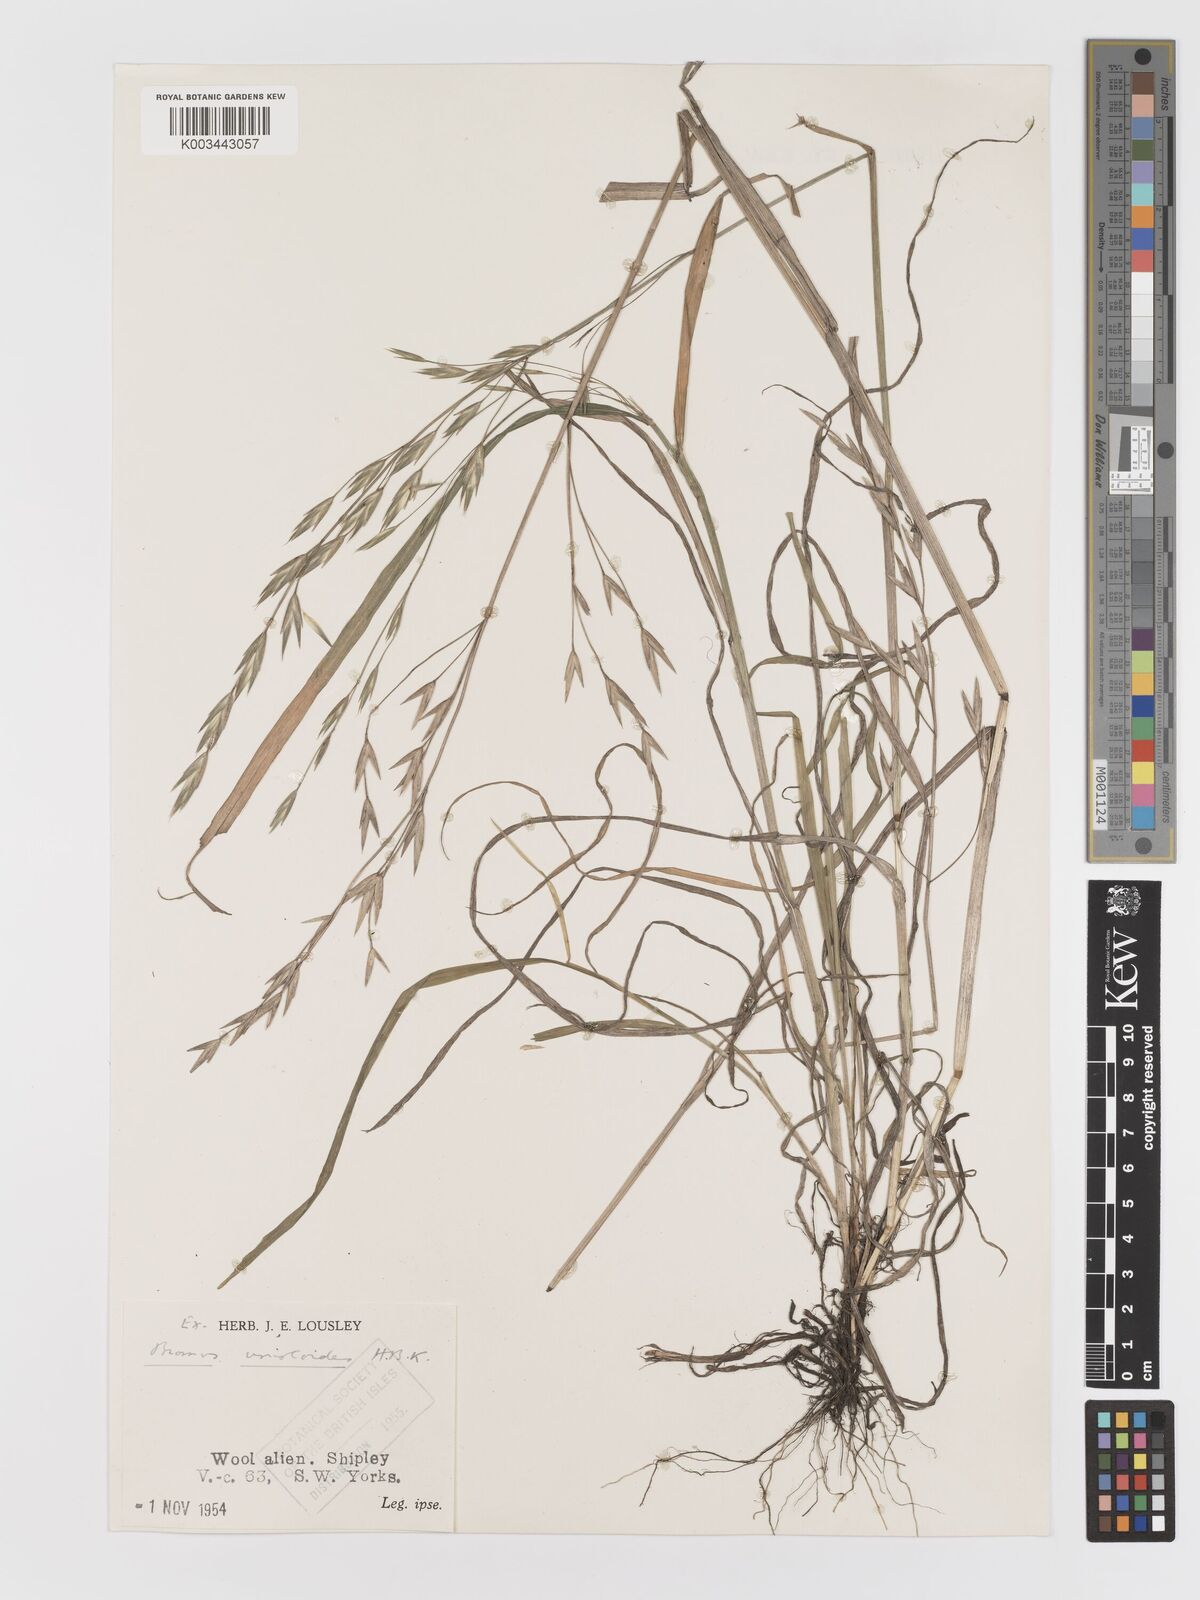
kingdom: Plantae
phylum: Tracheophyta
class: Liliopsida
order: Poales
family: Poaceae
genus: Bromus
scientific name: Bromus catharticus
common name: Rescuegrass
